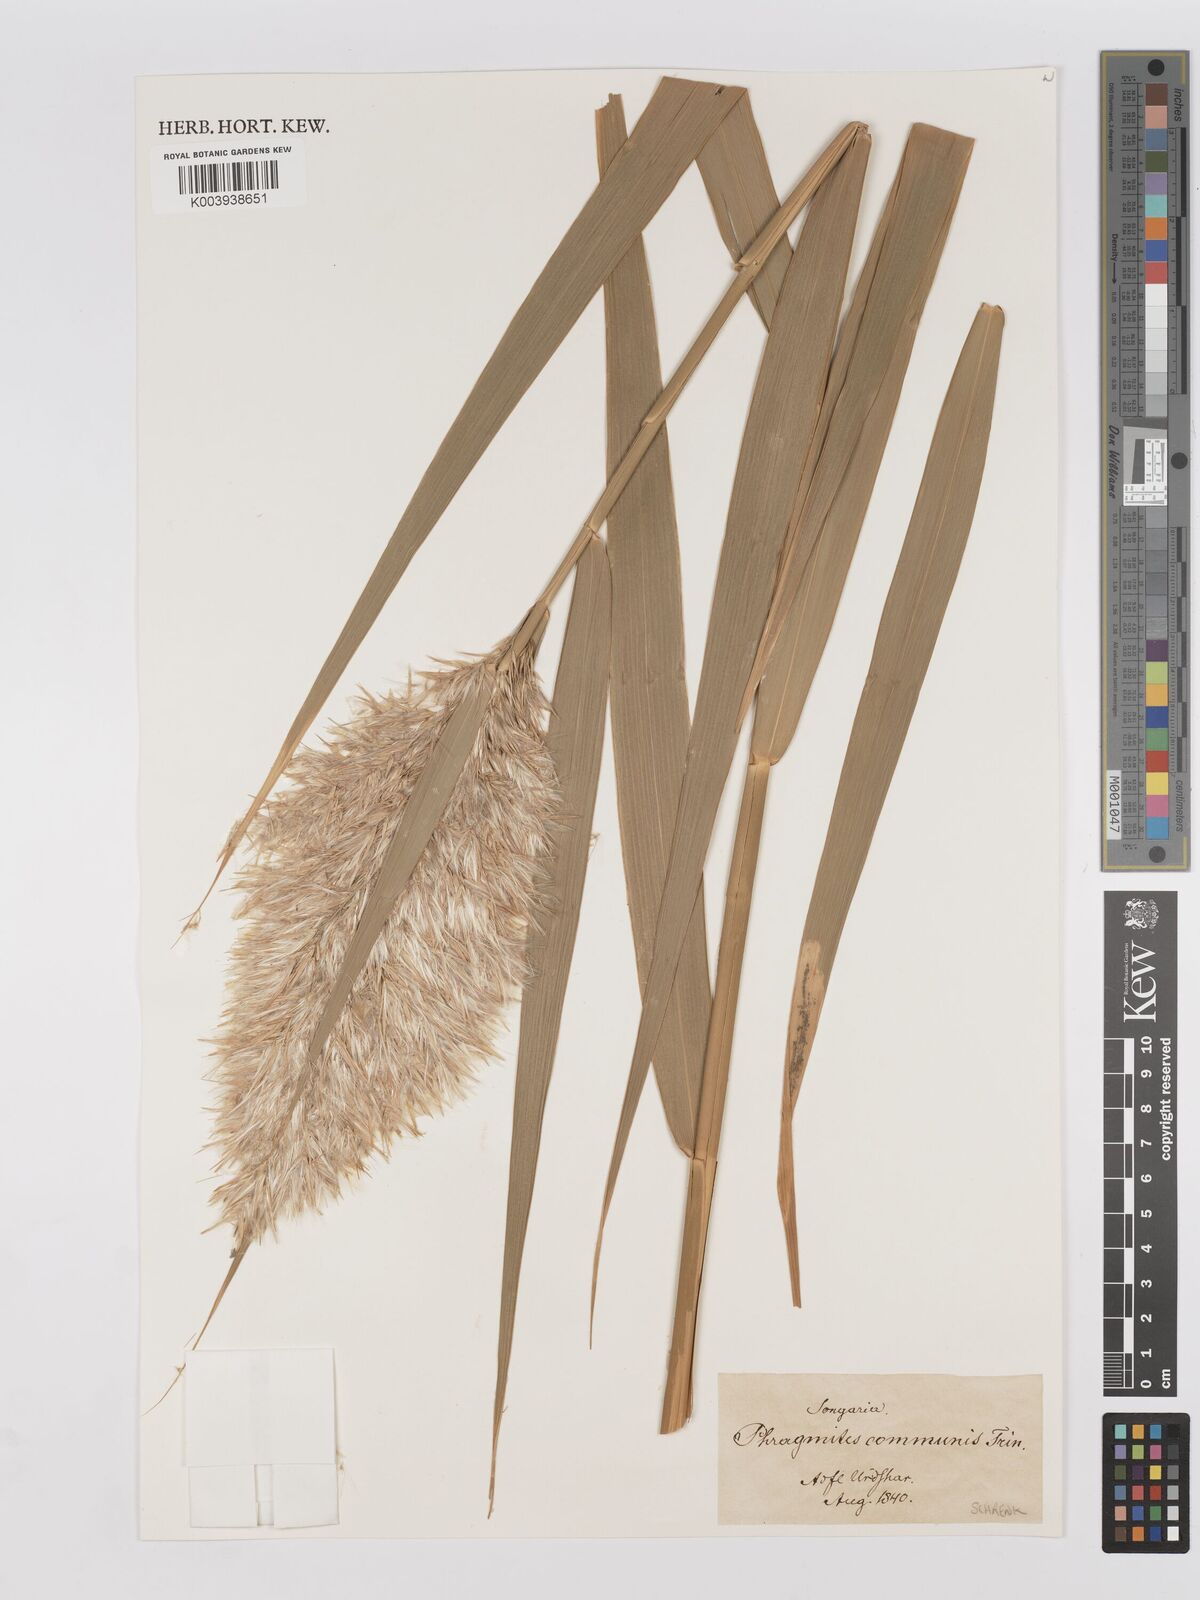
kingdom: Plantae
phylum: Tracheophyta
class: Liliopsida
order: Poales
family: Poaceae
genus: Phragmites
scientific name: Phragmites australis
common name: Common reed
